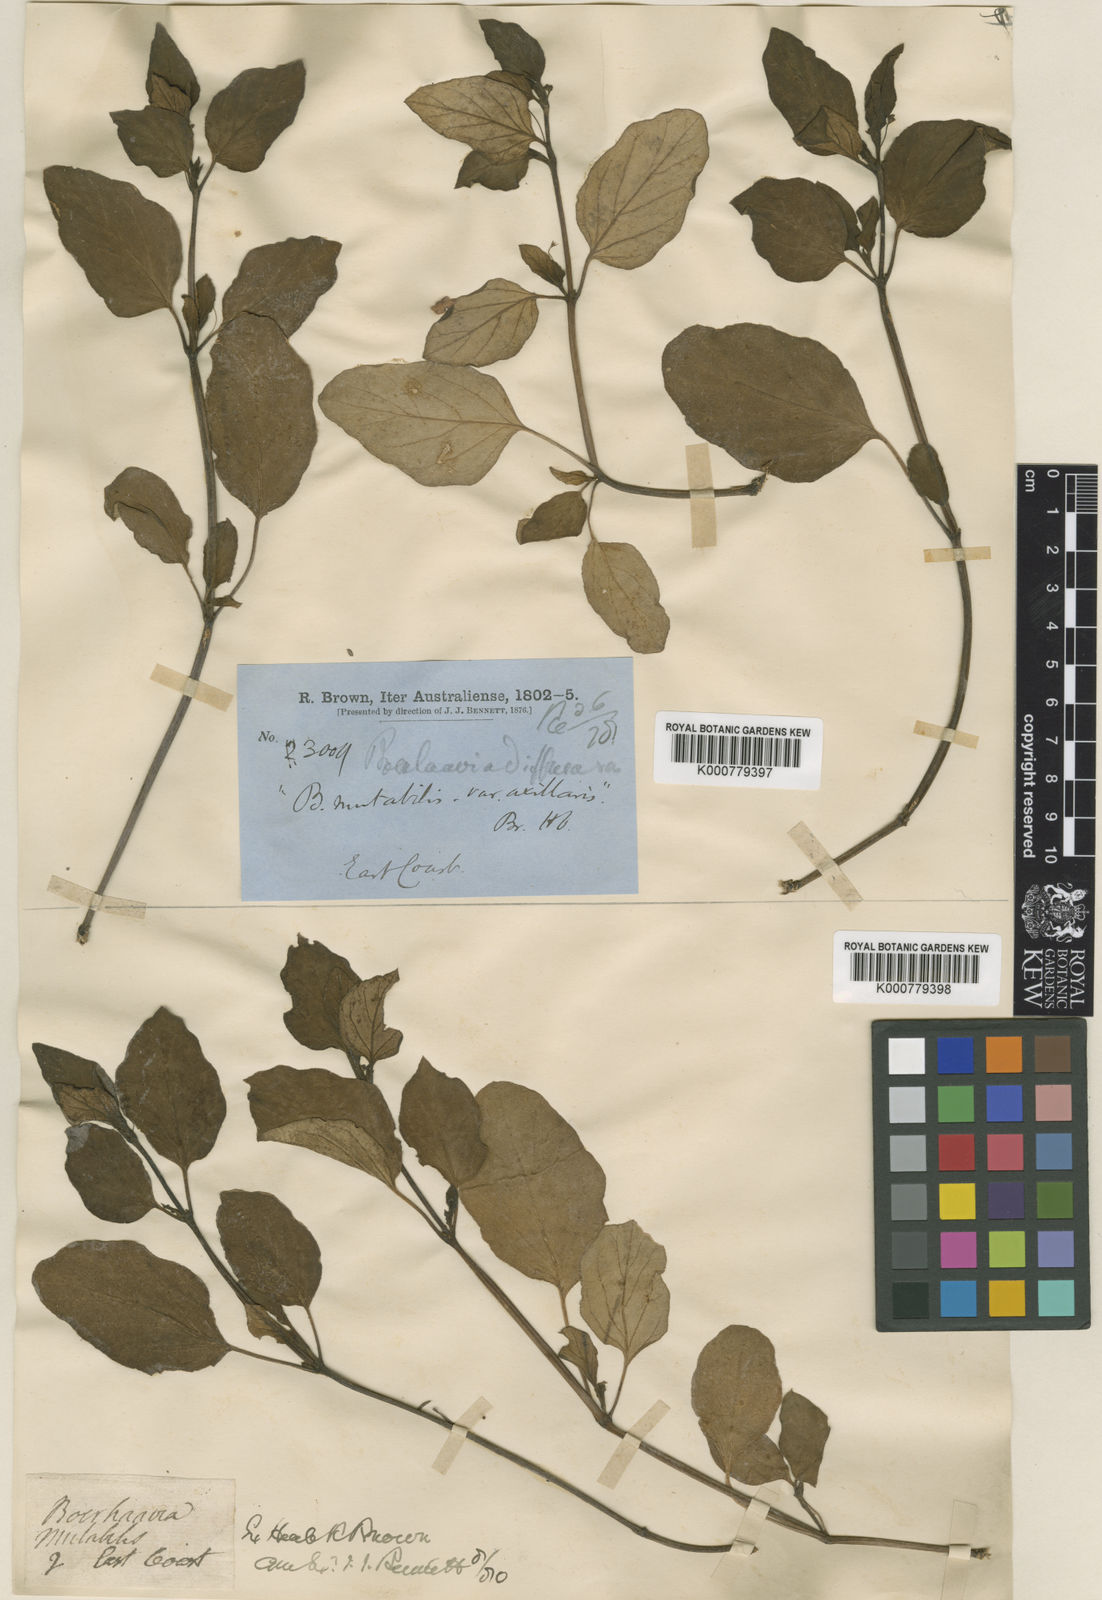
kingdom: Plantae
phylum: Tracheophyta
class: Magnoliopsida
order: Caryophyllales
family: Nyctaginaceae
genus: Boerhavia
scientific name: Boerhavia tetrandra
